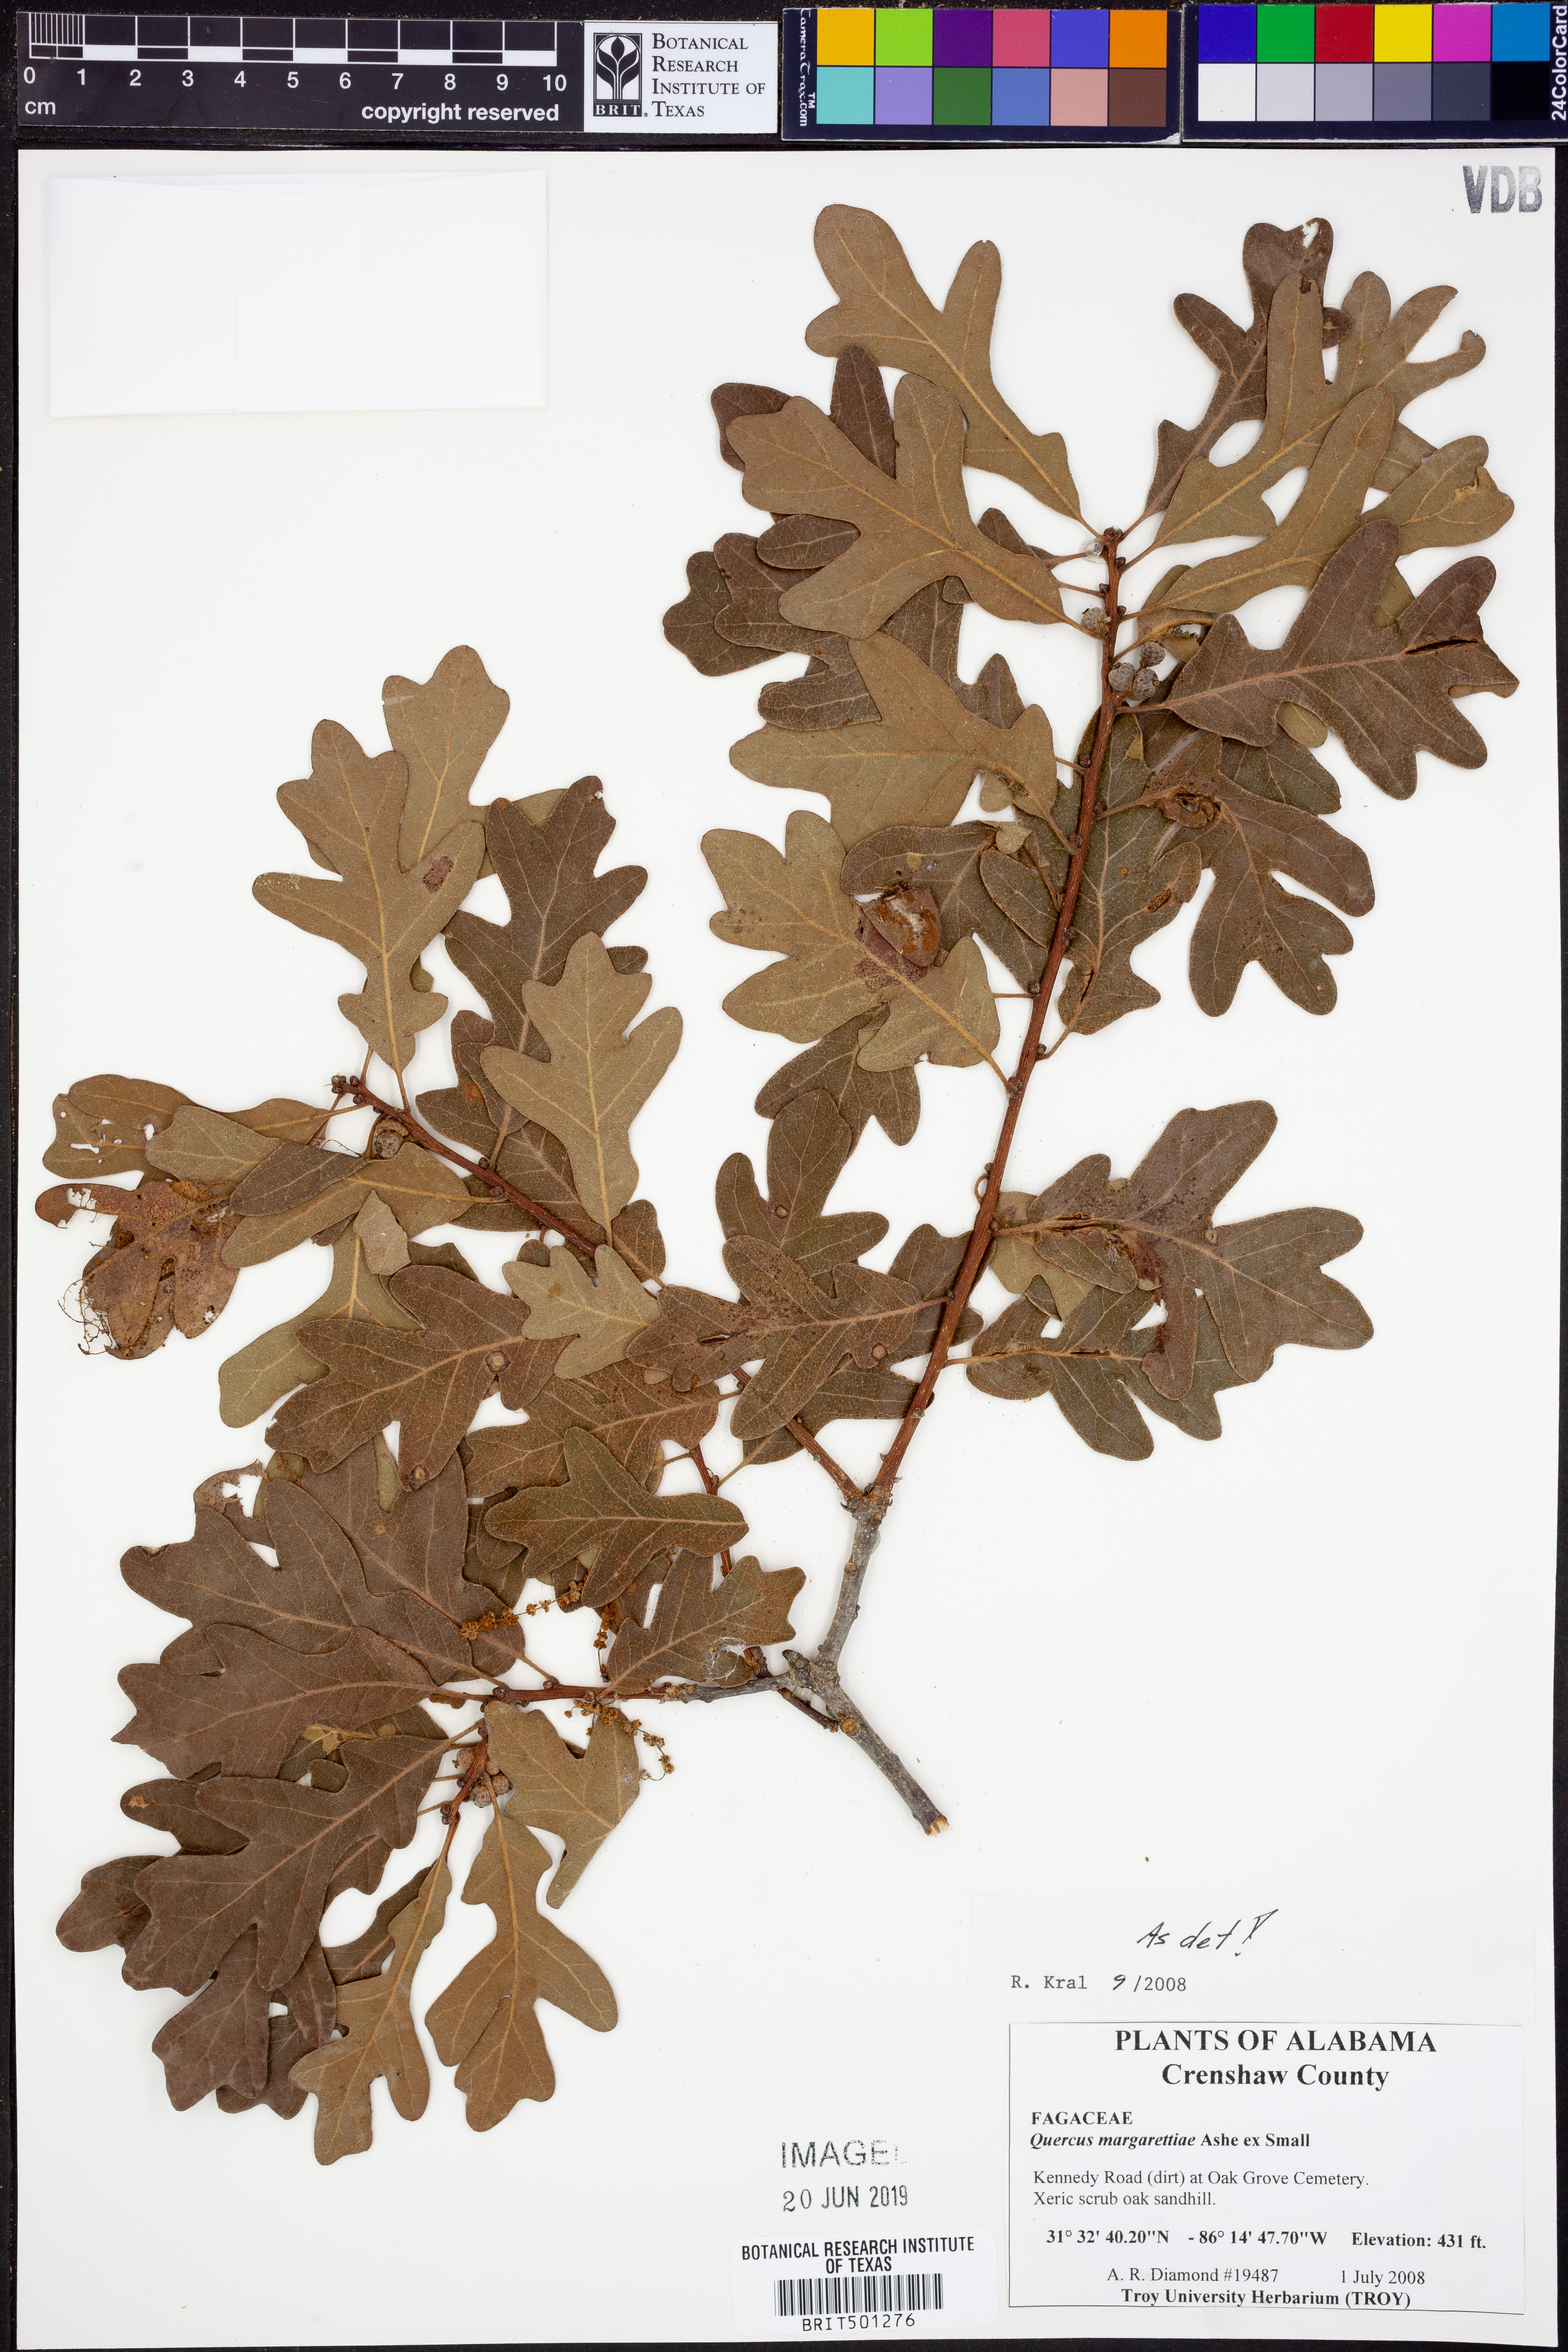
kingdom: Plantae
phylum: Tracheophyta
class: Magnoliopsida
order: Fagales
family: Fagaceae
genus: Quercus
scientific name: Quercus margaretiae
